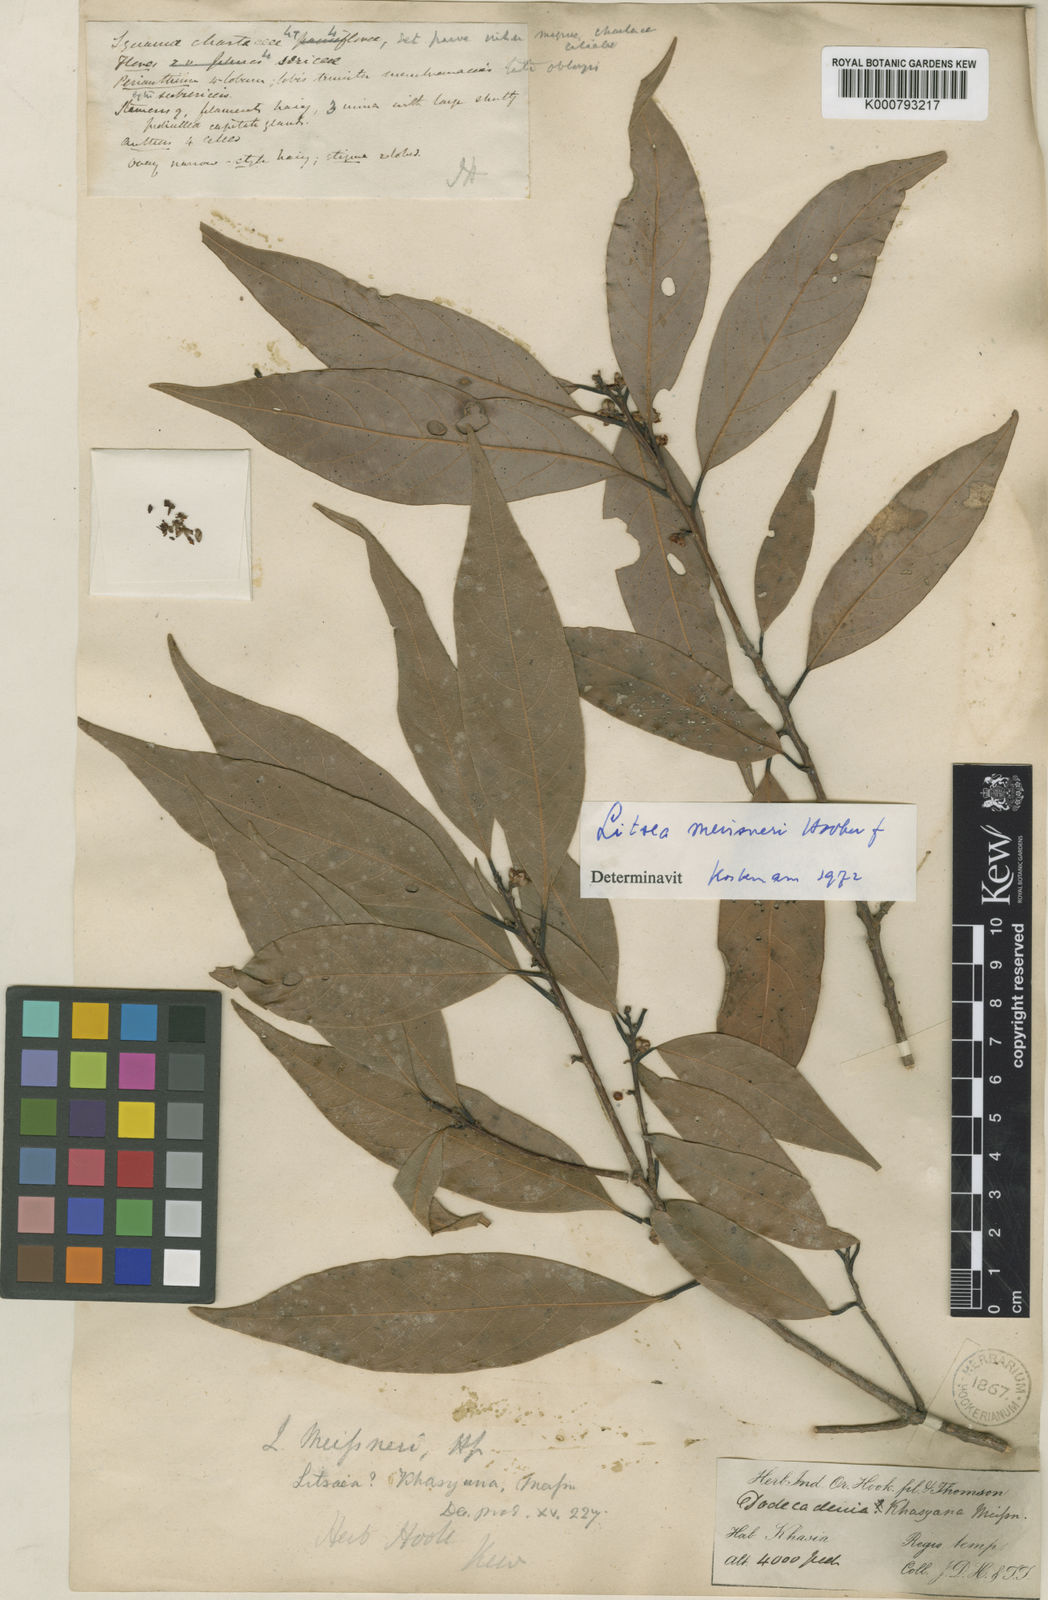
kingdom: Plantae
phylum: Tracheophyta
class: Magnoliopsida
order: Laurales
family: Lauraceae
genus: Litsea
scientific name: Litsea khasyana
